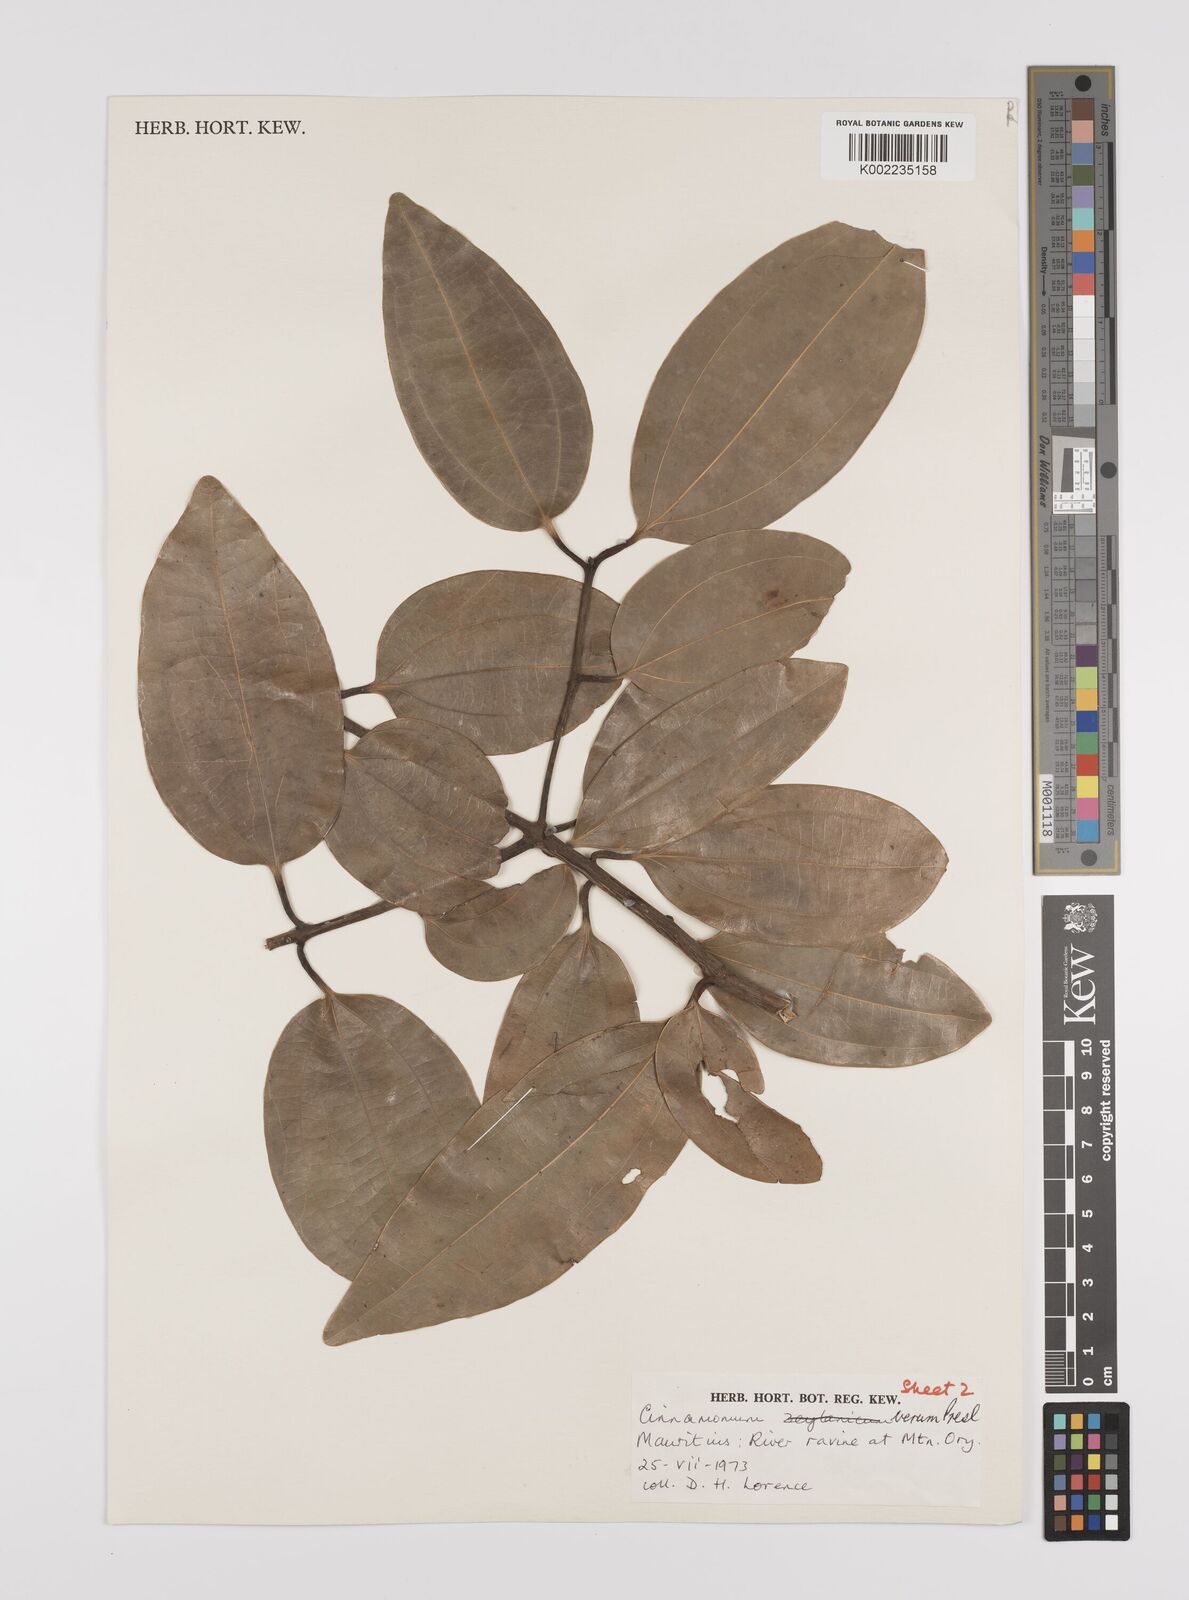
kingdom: Plantae
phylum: Tracheophyta
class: Magnoliopsida
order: Laurales
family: Lauraceae
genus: Cinnamomum
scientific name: Cinnamomum verum
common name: Cinnamon
